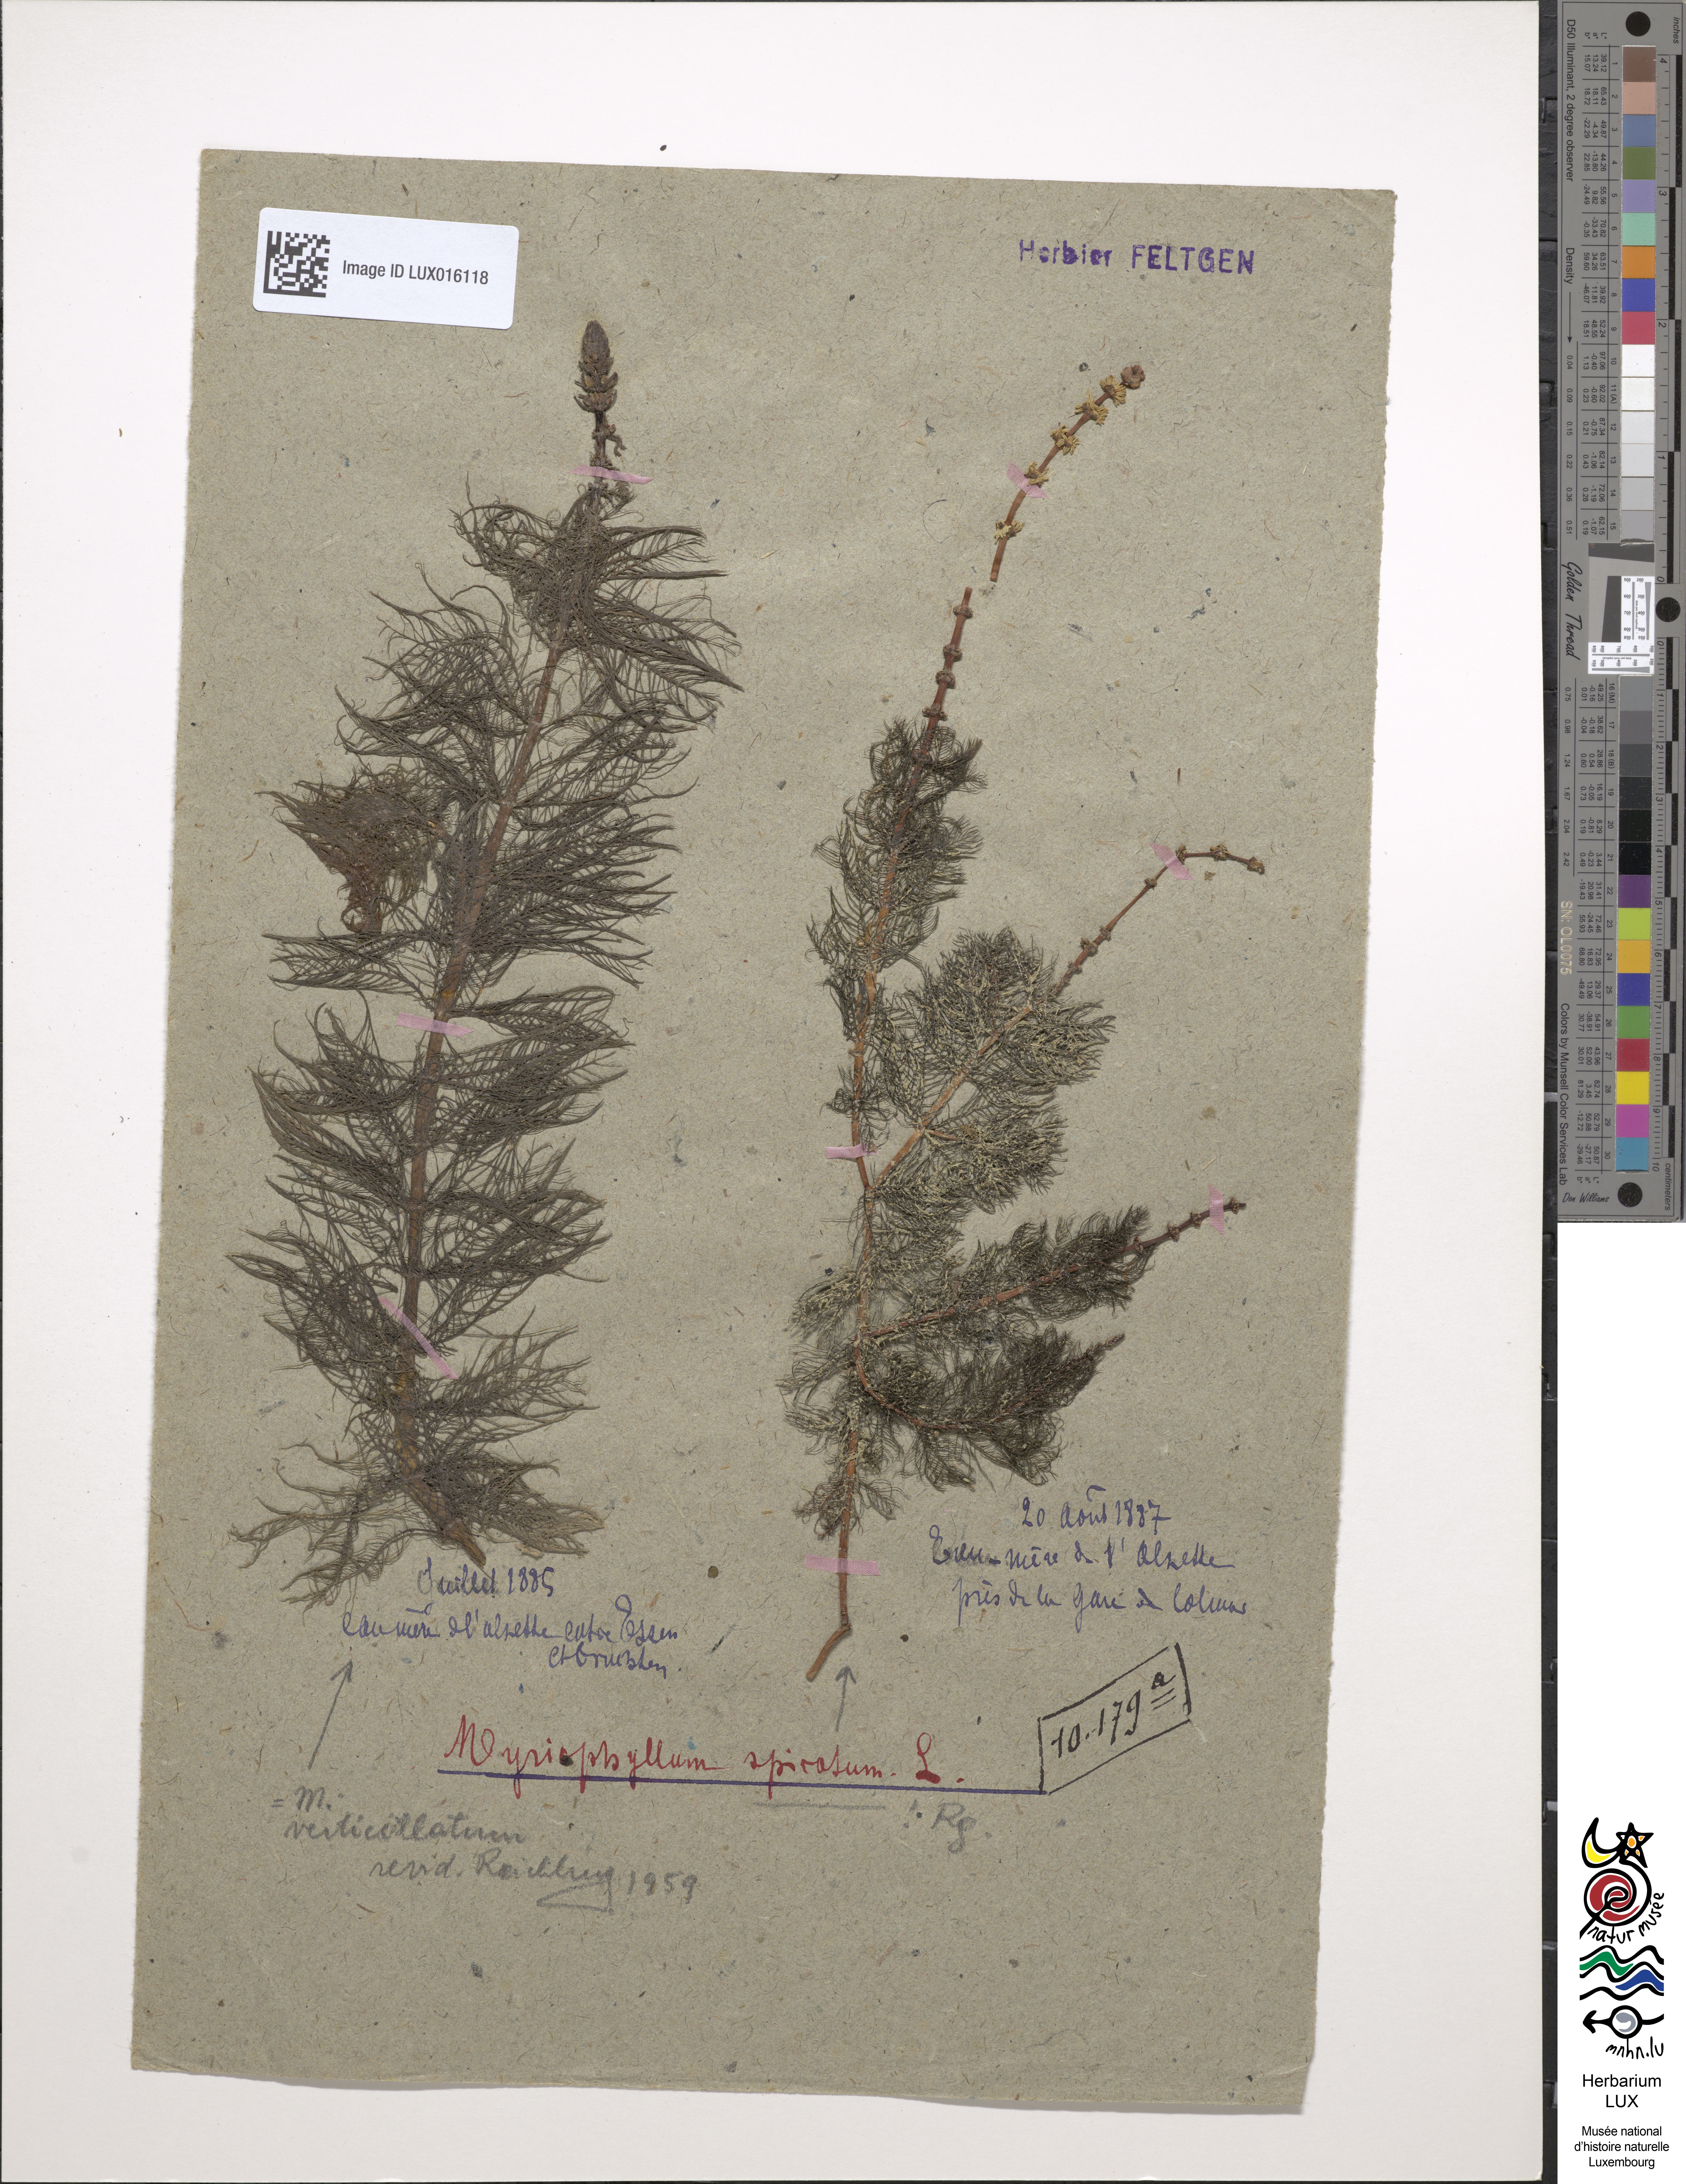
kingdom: Plantae
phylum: Tracheophyta
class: Magnoliopsida
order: Saxifragales
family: Haloragaceae
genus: Myriophyllum
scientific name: Myriophyllum spicatum
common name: Spiked water-milfoil
